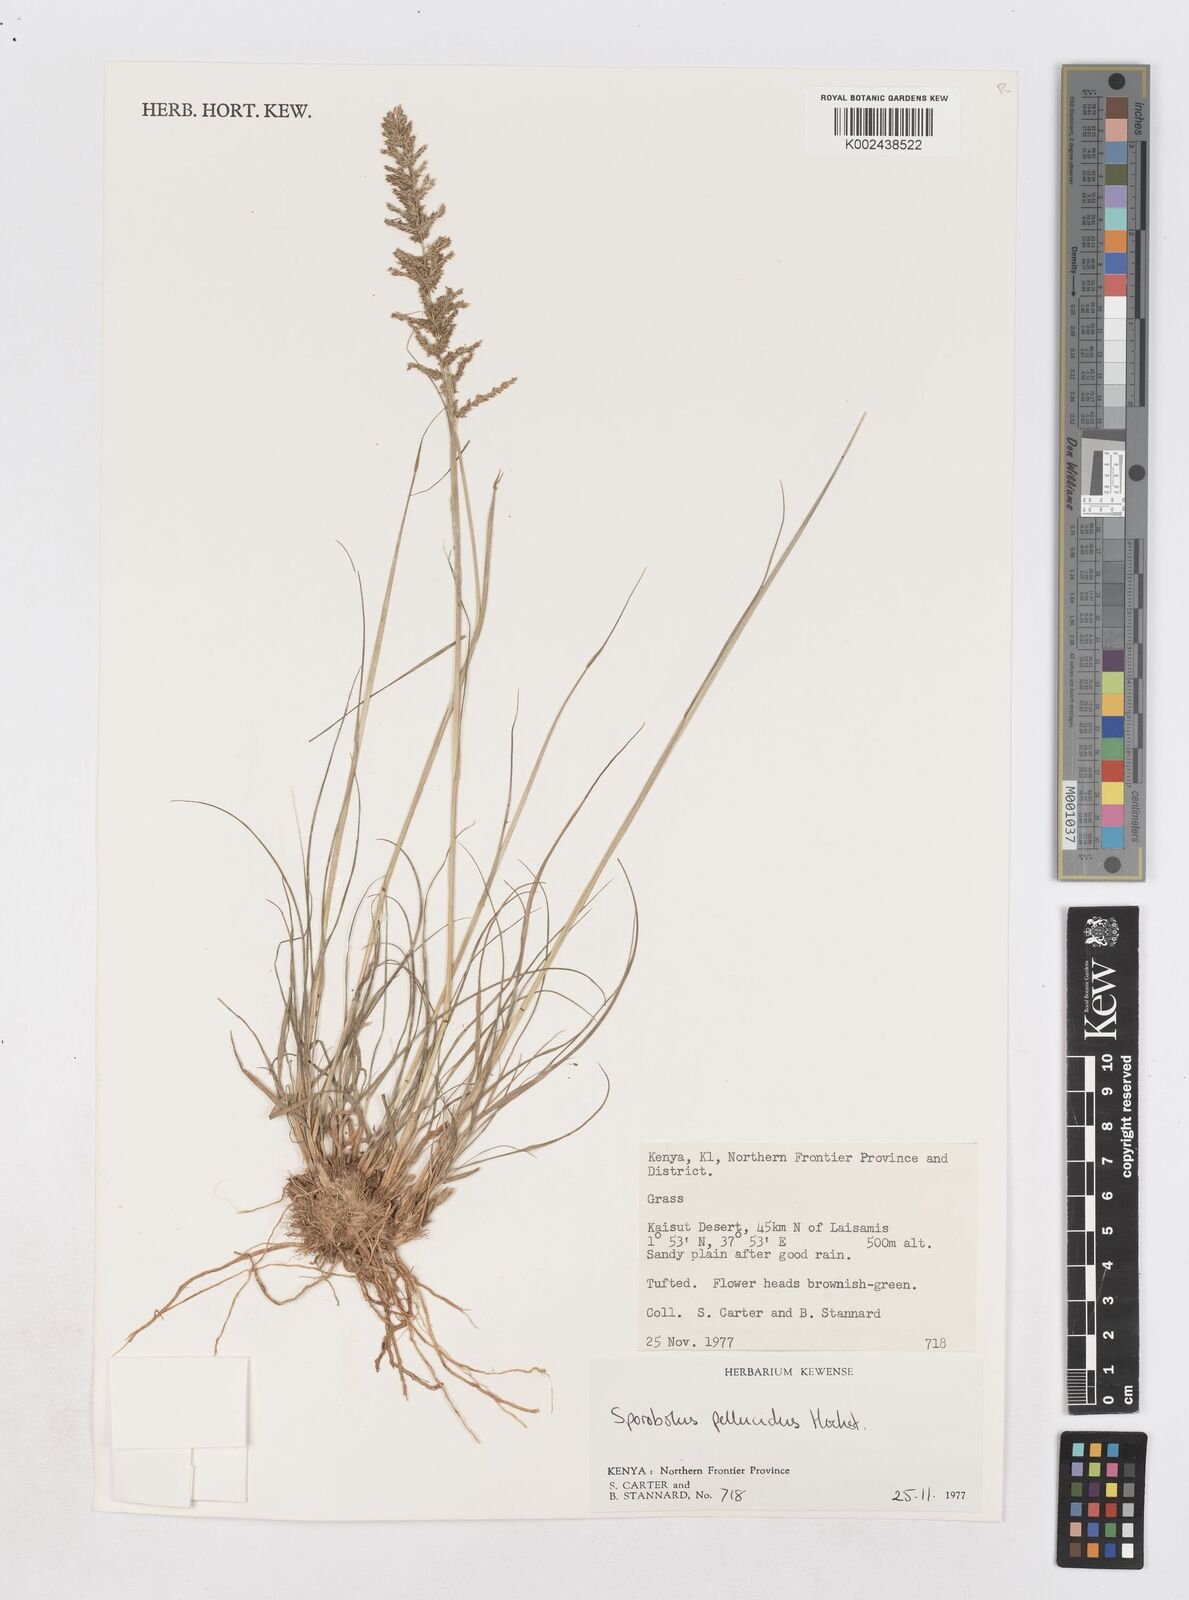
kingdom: Plantae
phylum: Tracheophyta
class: Liliopsida
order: Poales
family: Poaceae
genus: Sporobolus
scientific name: Sporobolus pellucidus
